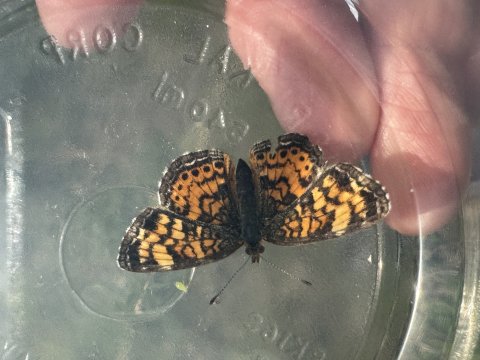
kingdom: Animalia
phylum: Arthropoda
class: Insecta
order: Lepidoptera
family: Nymphalidae
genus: Phyciodes
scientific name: Phyciodes tharos
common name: Pearl Crescent
